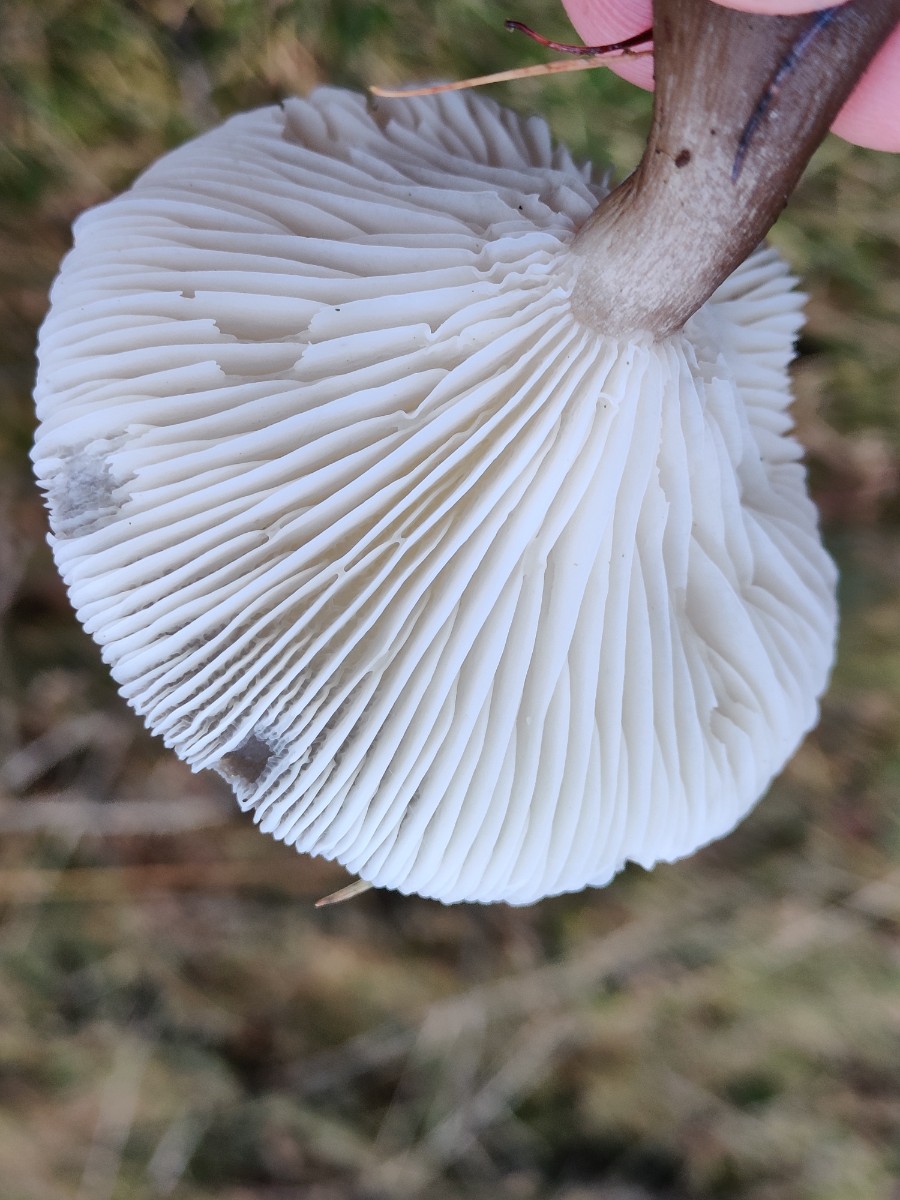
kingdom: Fungi
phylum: Basidiomycota
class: Agaricomycetes
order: Agaricales
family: Hygrophoraceae
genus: Ampulloclitocybe
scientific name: Ampulloclitocybe clavipes
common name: køllefod
